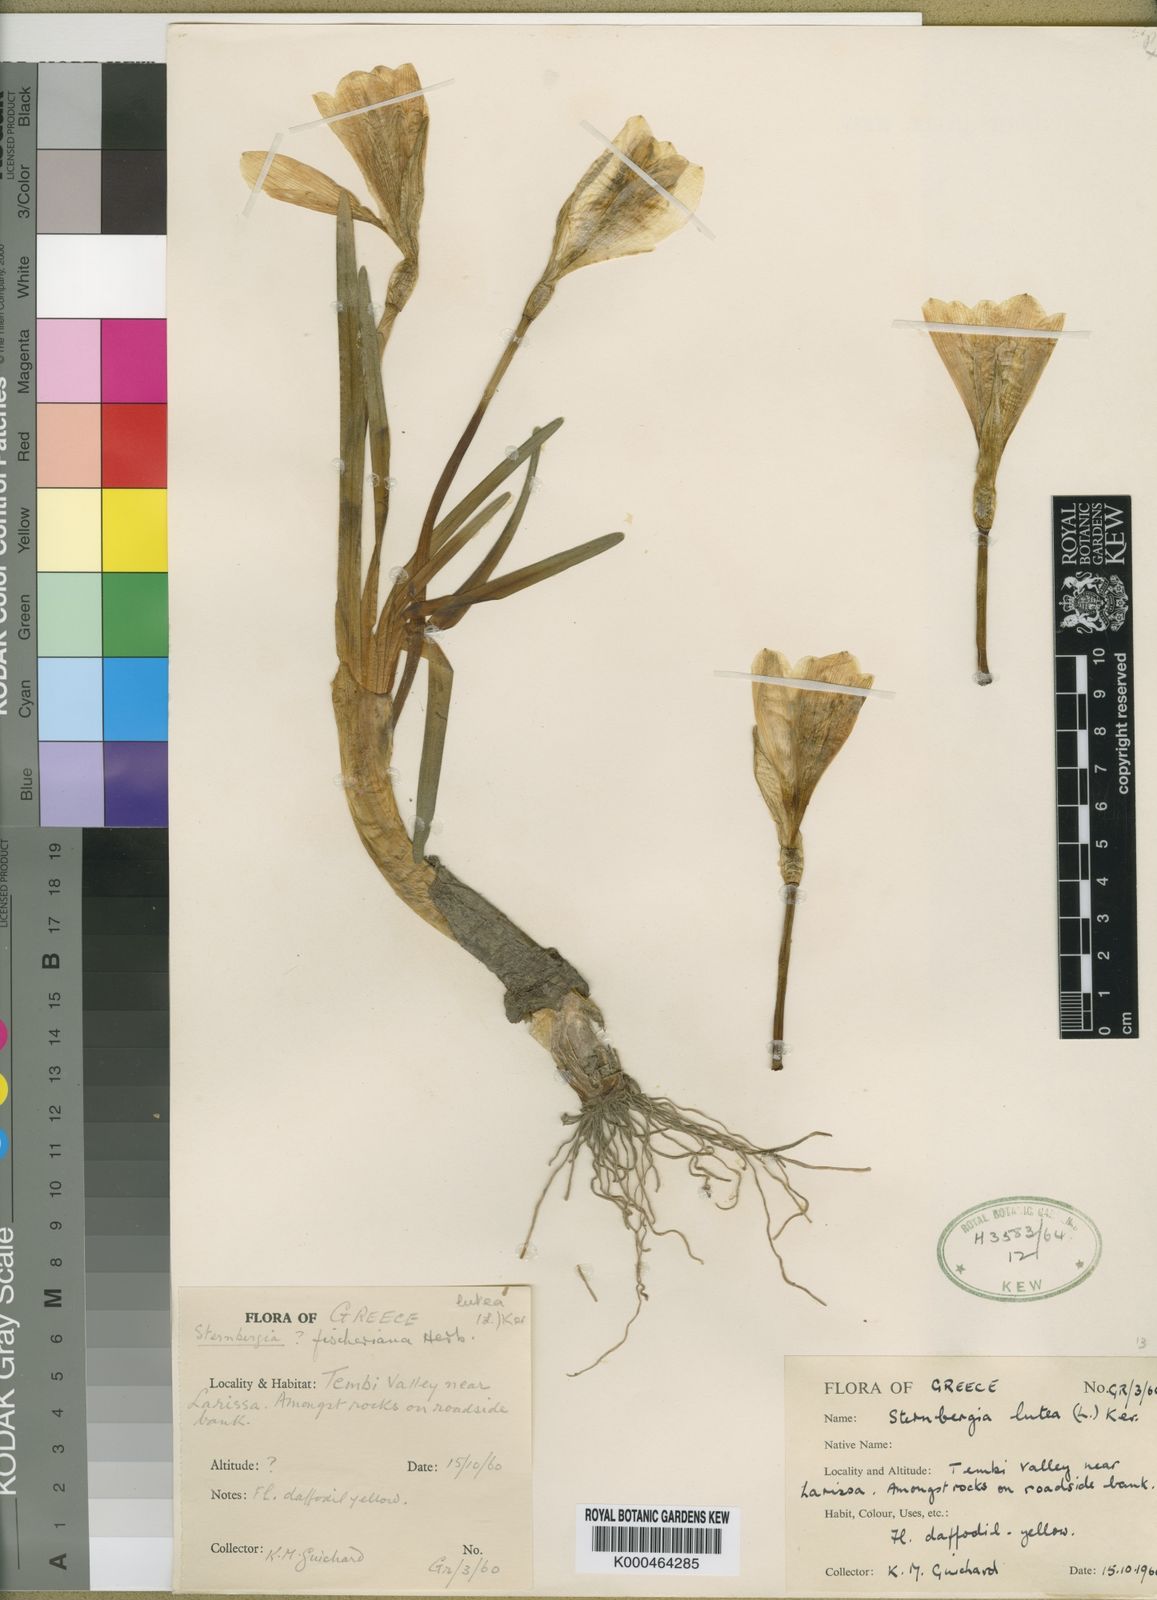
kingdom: Plantae
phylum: Tracheophyta
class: Liliopsida
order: Asparagales
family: Amaryllidaceae
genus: Sternbergia
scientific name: Sternbergia
